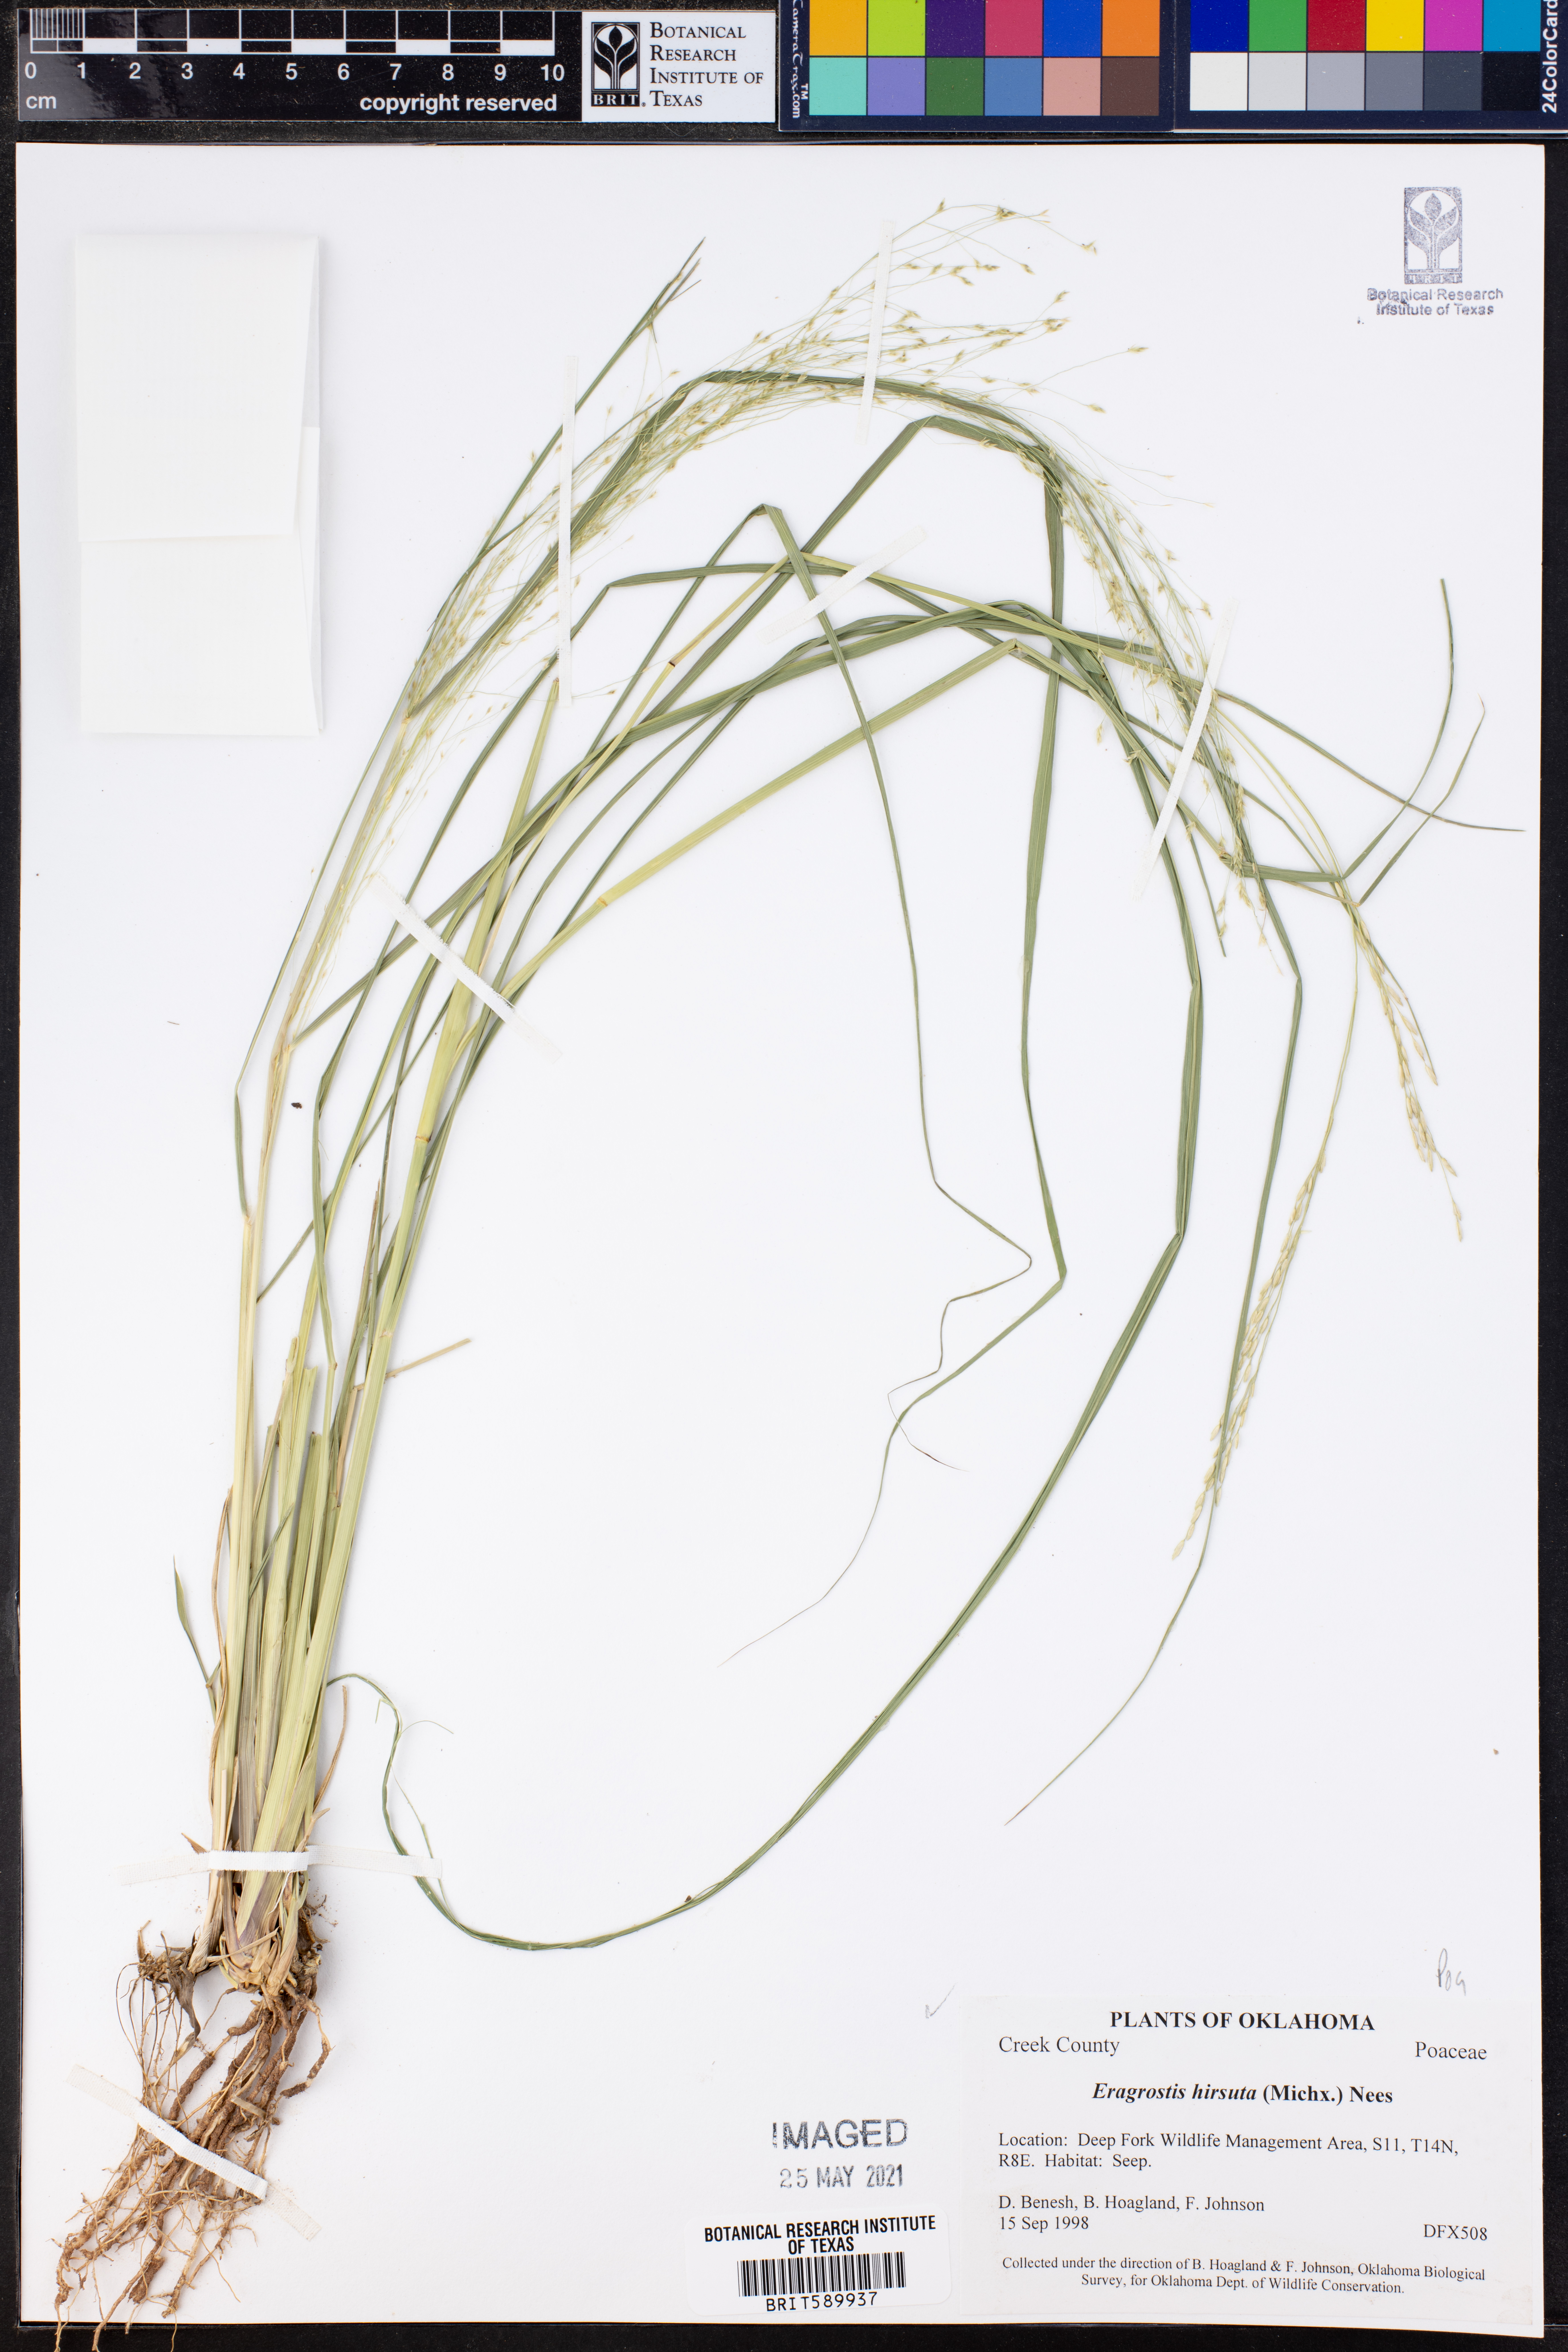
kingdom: Plantae
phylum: Tracheophyta
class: Liliopsida
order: Poales
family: Poaceae
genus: Eragrostis
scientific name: Eragrostis hirsuta
